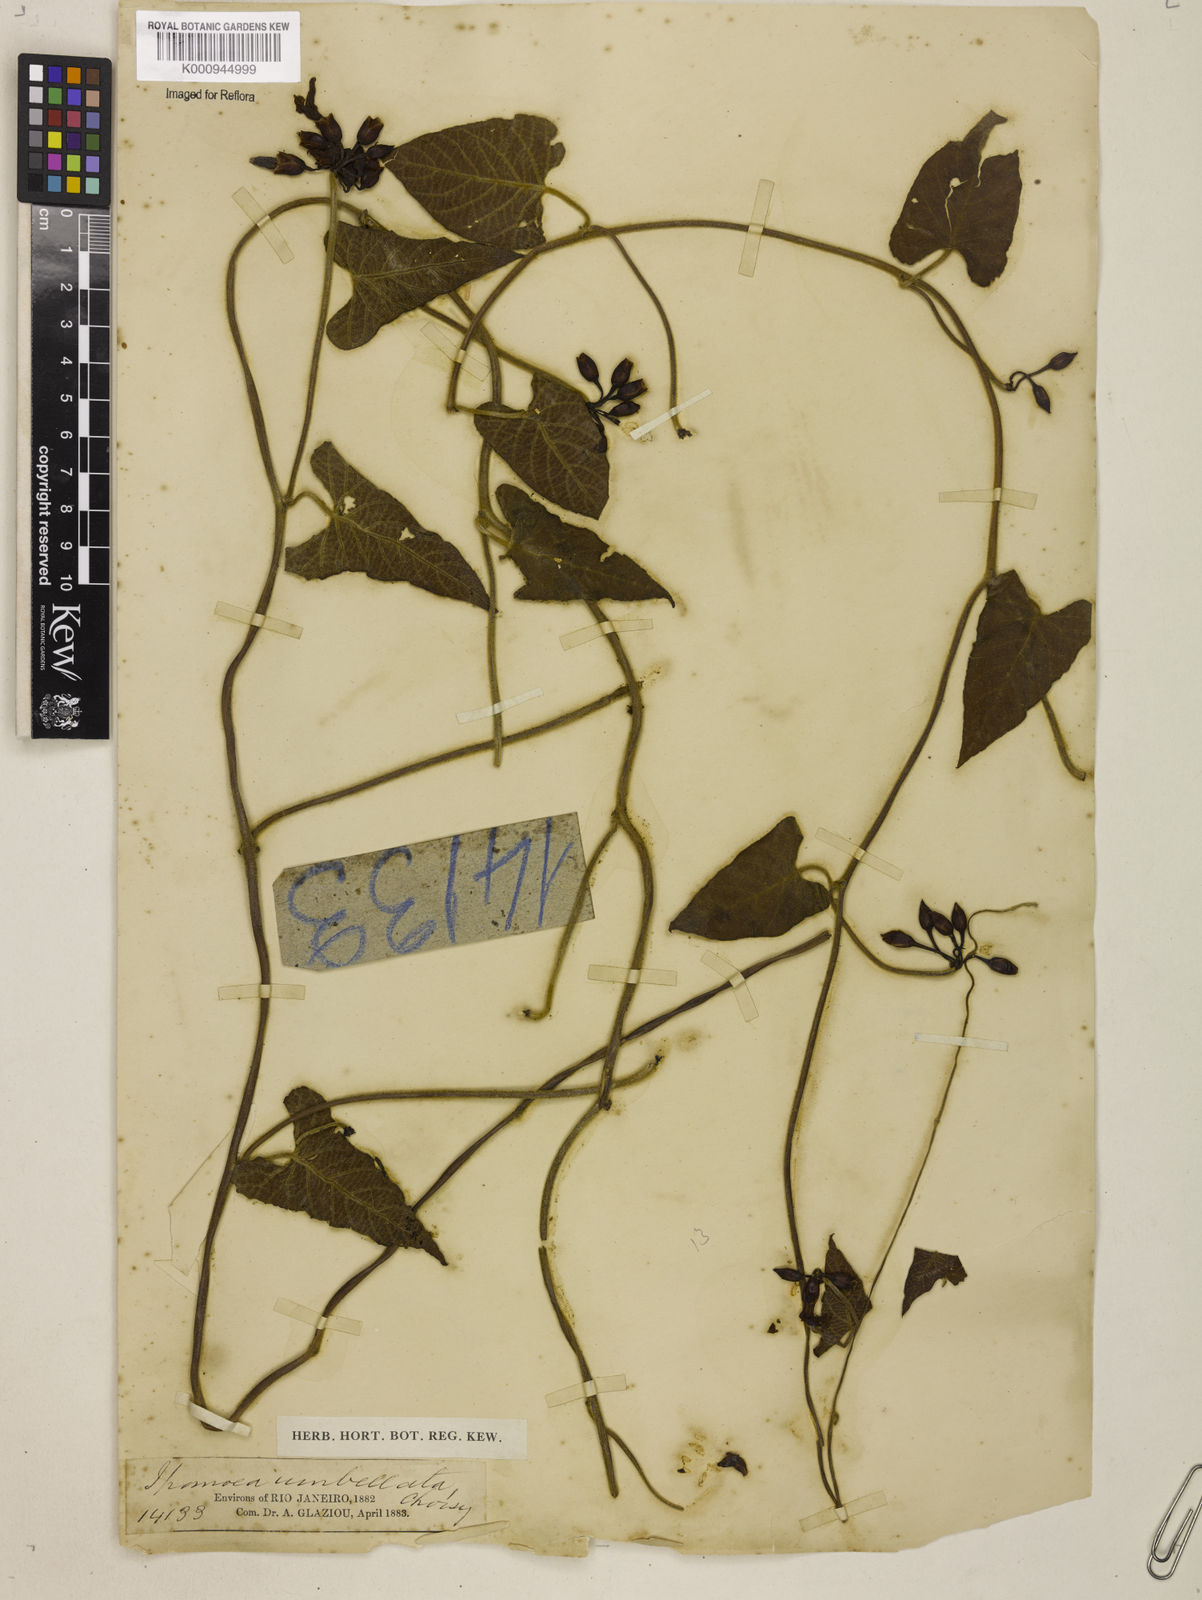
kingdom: Plantae
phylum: Tracheophyta
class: Magnoliopsida
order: Solanales
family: Convolvulaceae
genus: Camonea
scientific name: Camonea umbellata
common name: Hogvine
